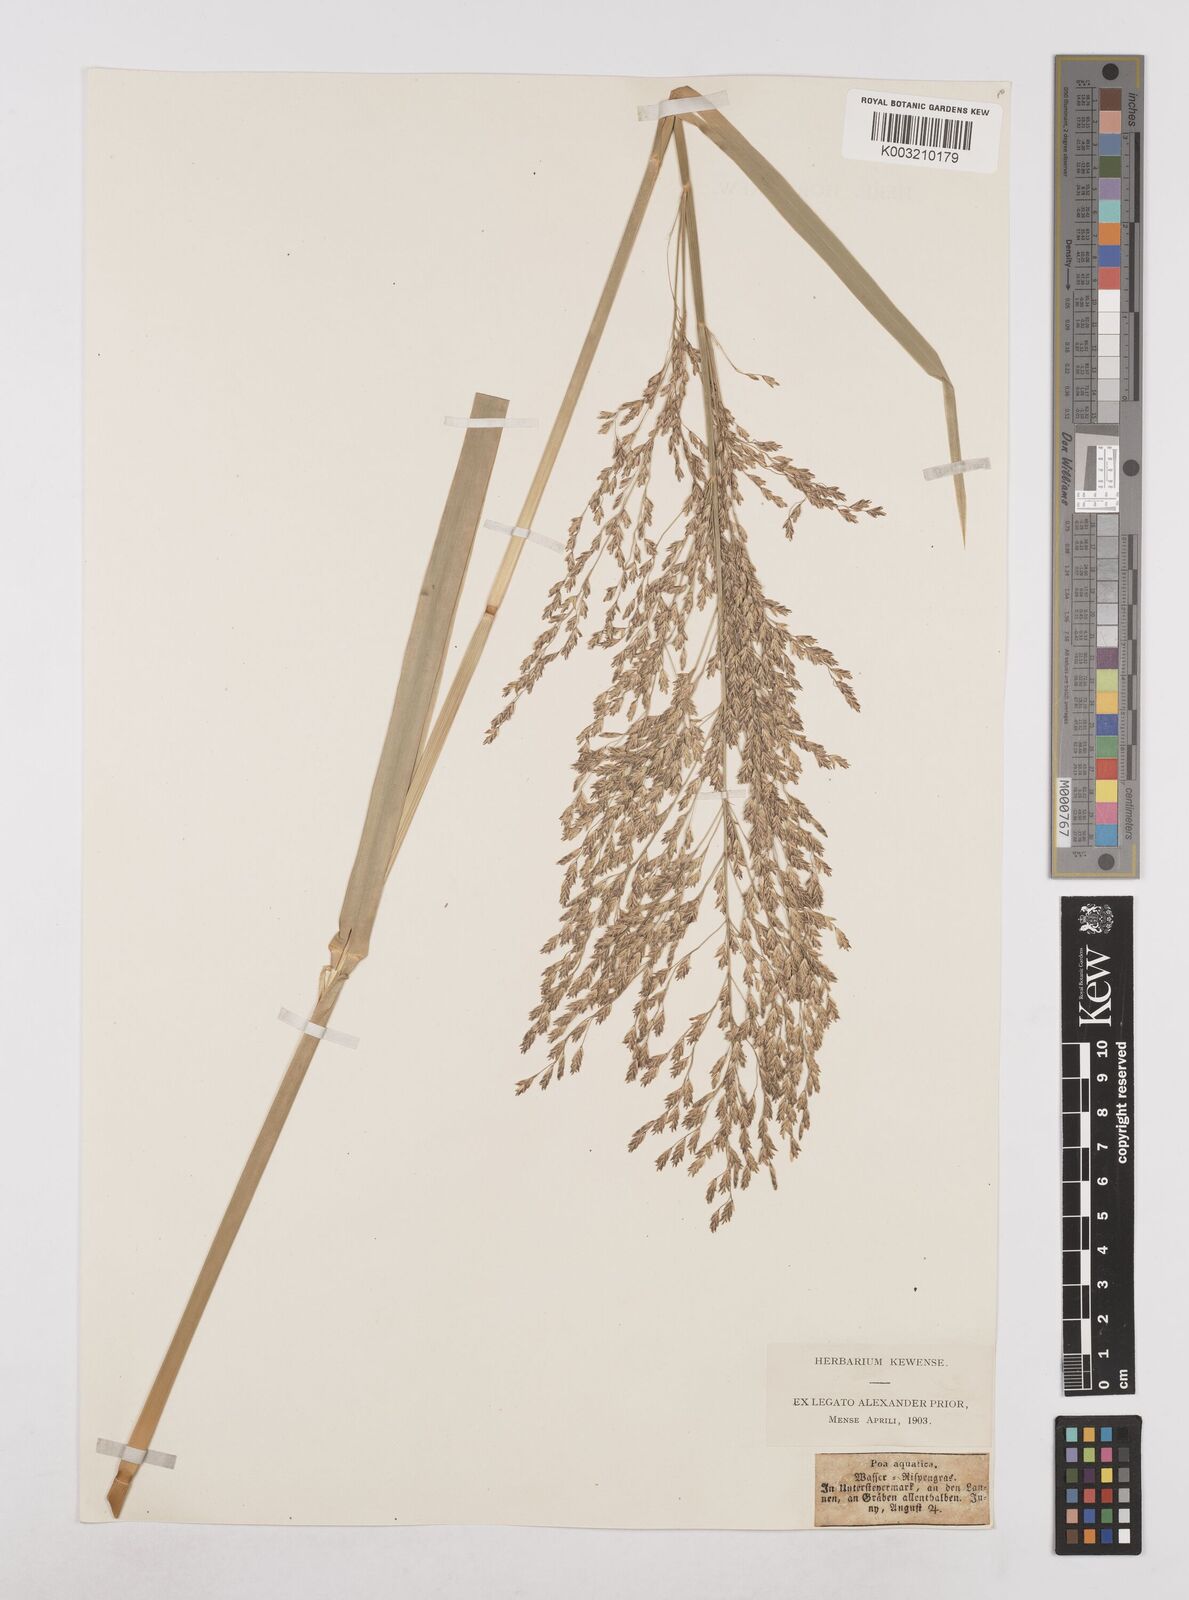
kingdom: Plantae
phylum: Tracheophyta
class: Liliopsida
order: Poales
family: Poaceae
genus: Glyceria
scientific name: Glyceria maxima
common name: Reed mannagrass
